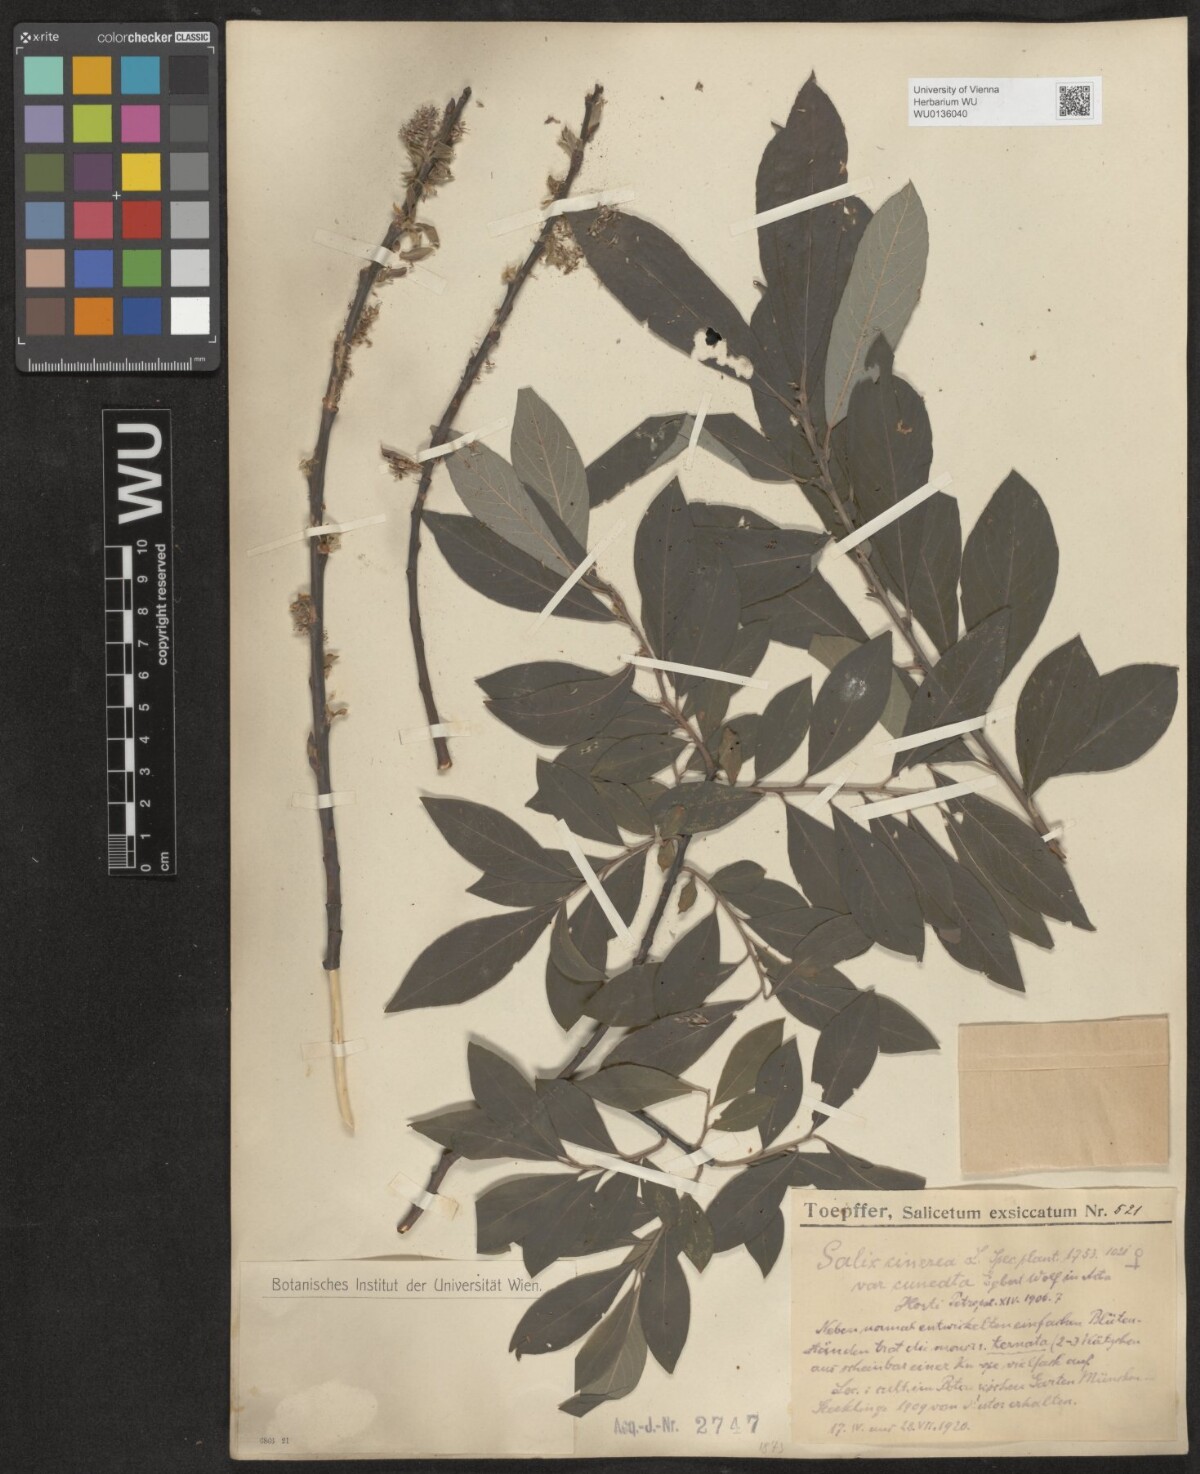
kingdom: Plantae
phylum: Tracheophyta
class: Magnoliopsida
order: Malpighiales
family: Salicaceae
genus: Salix
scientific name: Salix cinerea
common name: Common sallow
